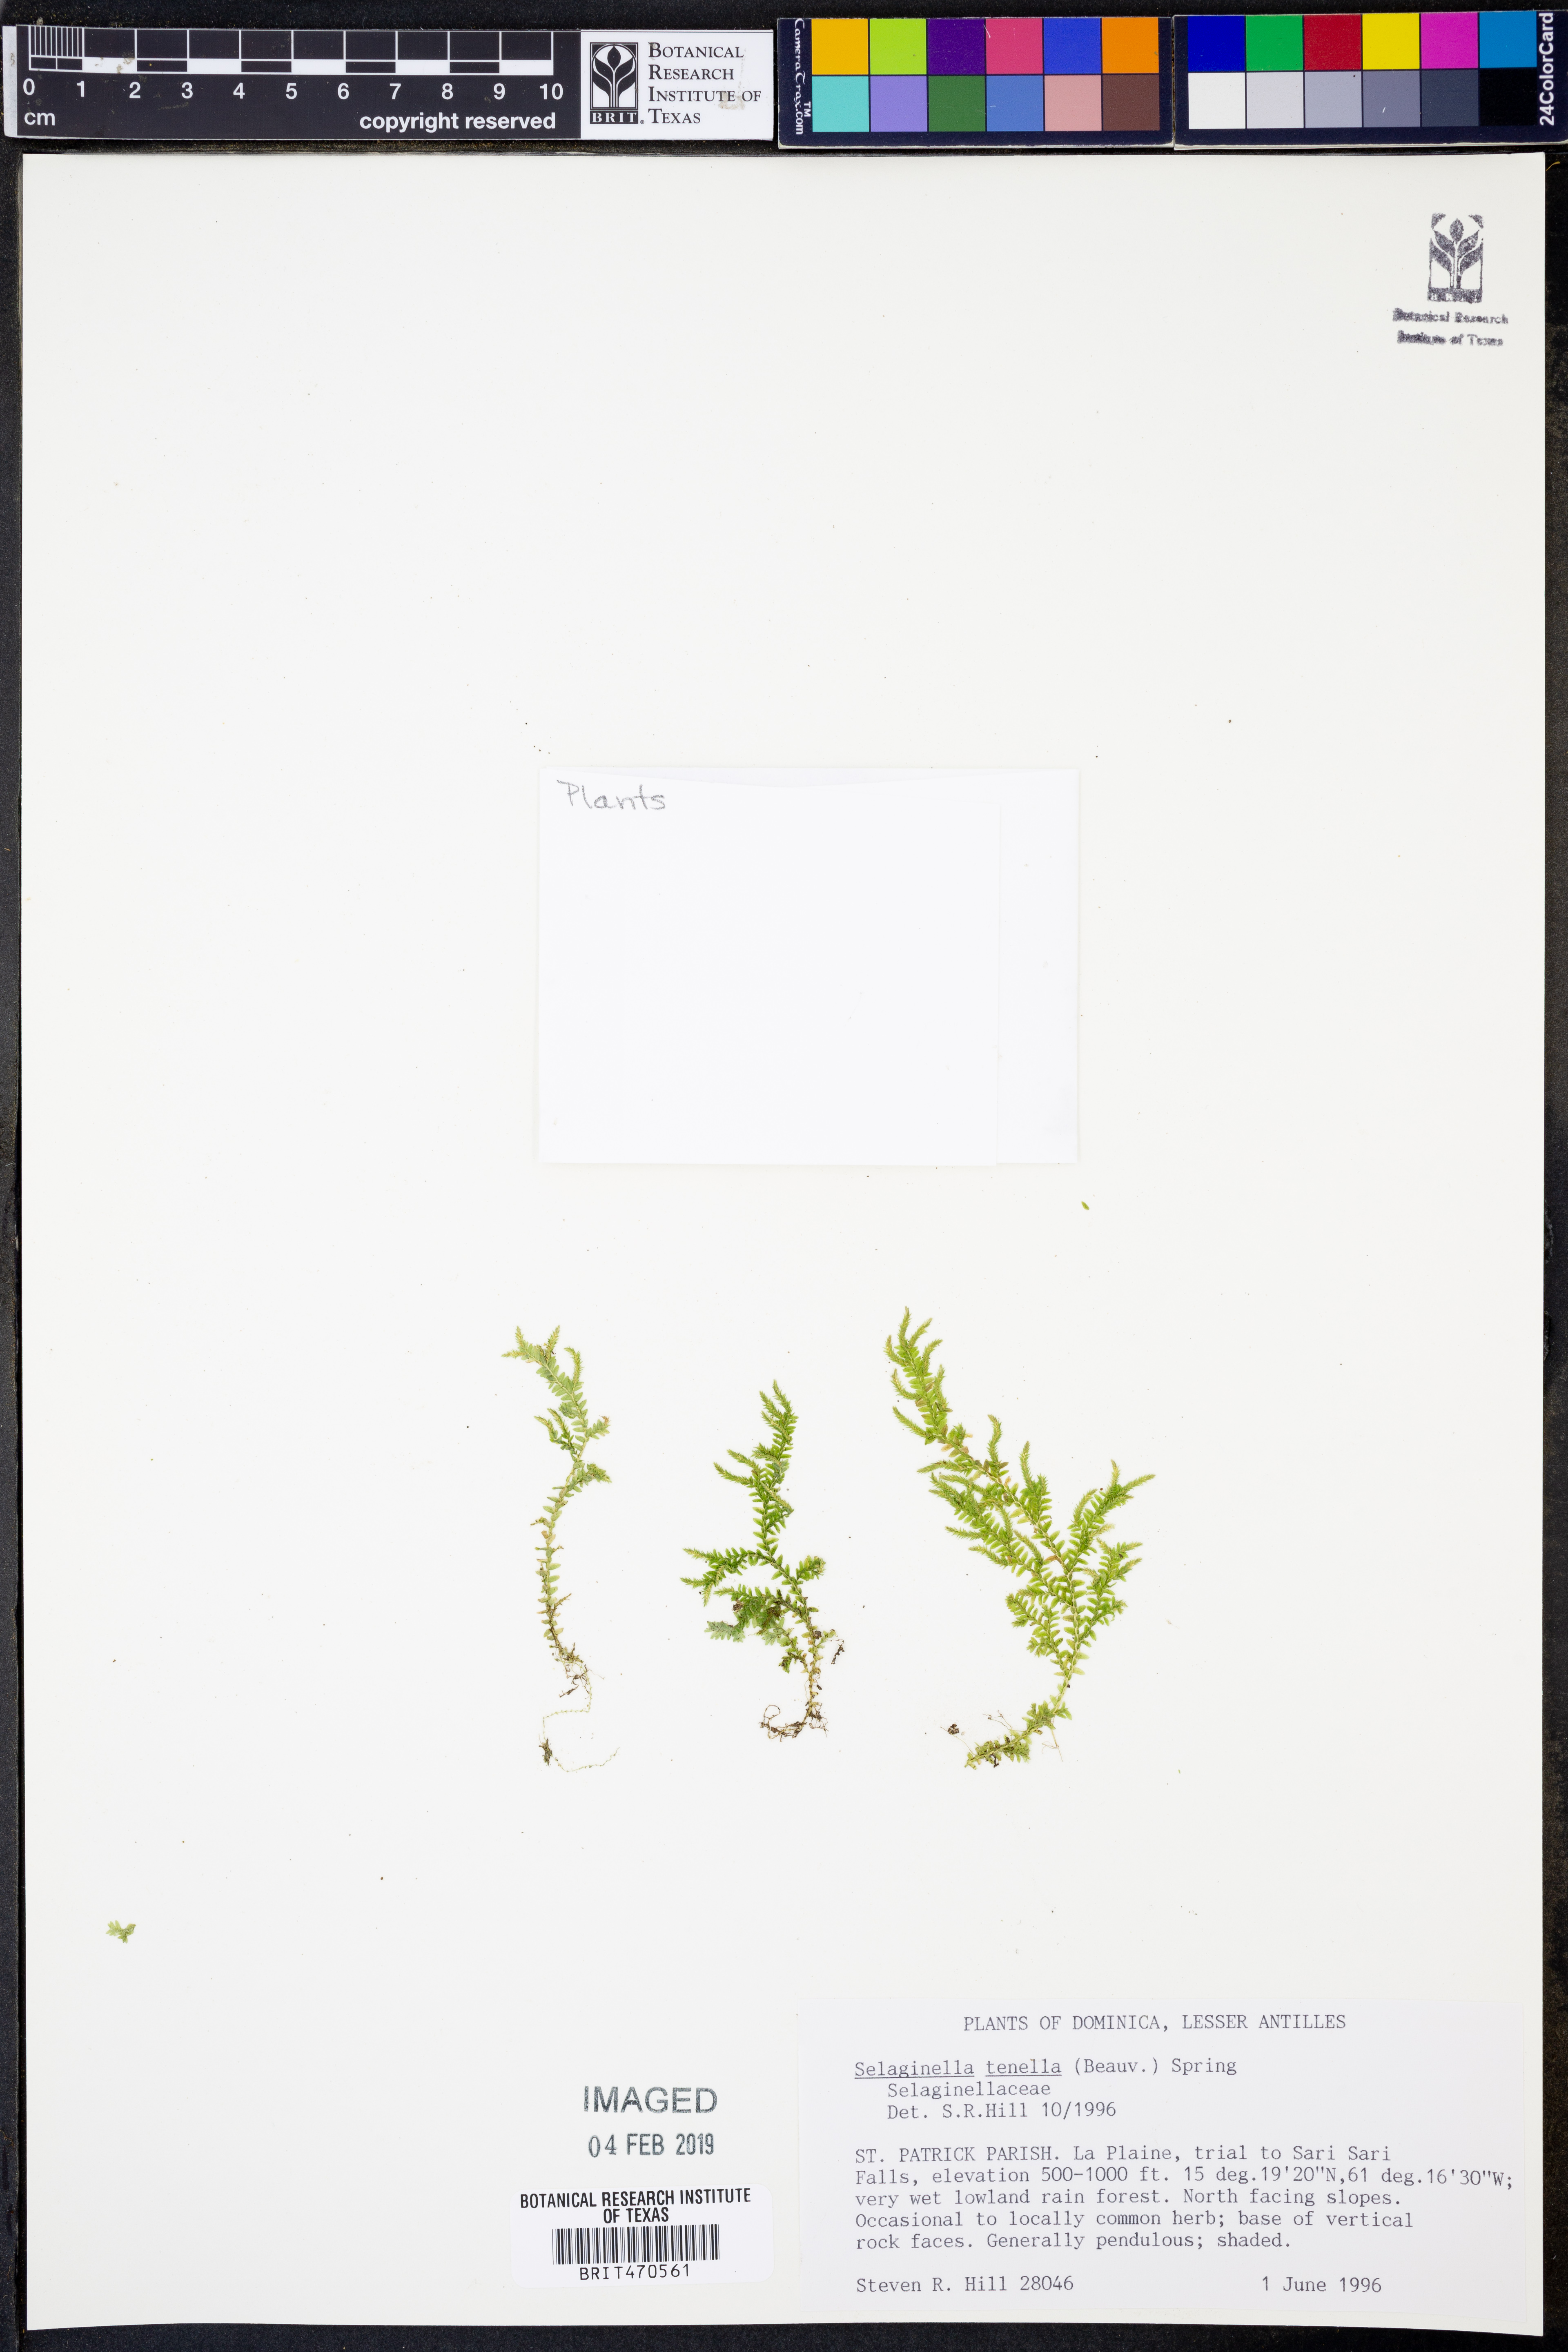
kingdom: Plantae
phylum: Tracheophyta
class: Lycopodiopsida
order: Selaginellales
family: Selaginellaceae
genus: Selaginella
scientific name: Selaginella tenella
